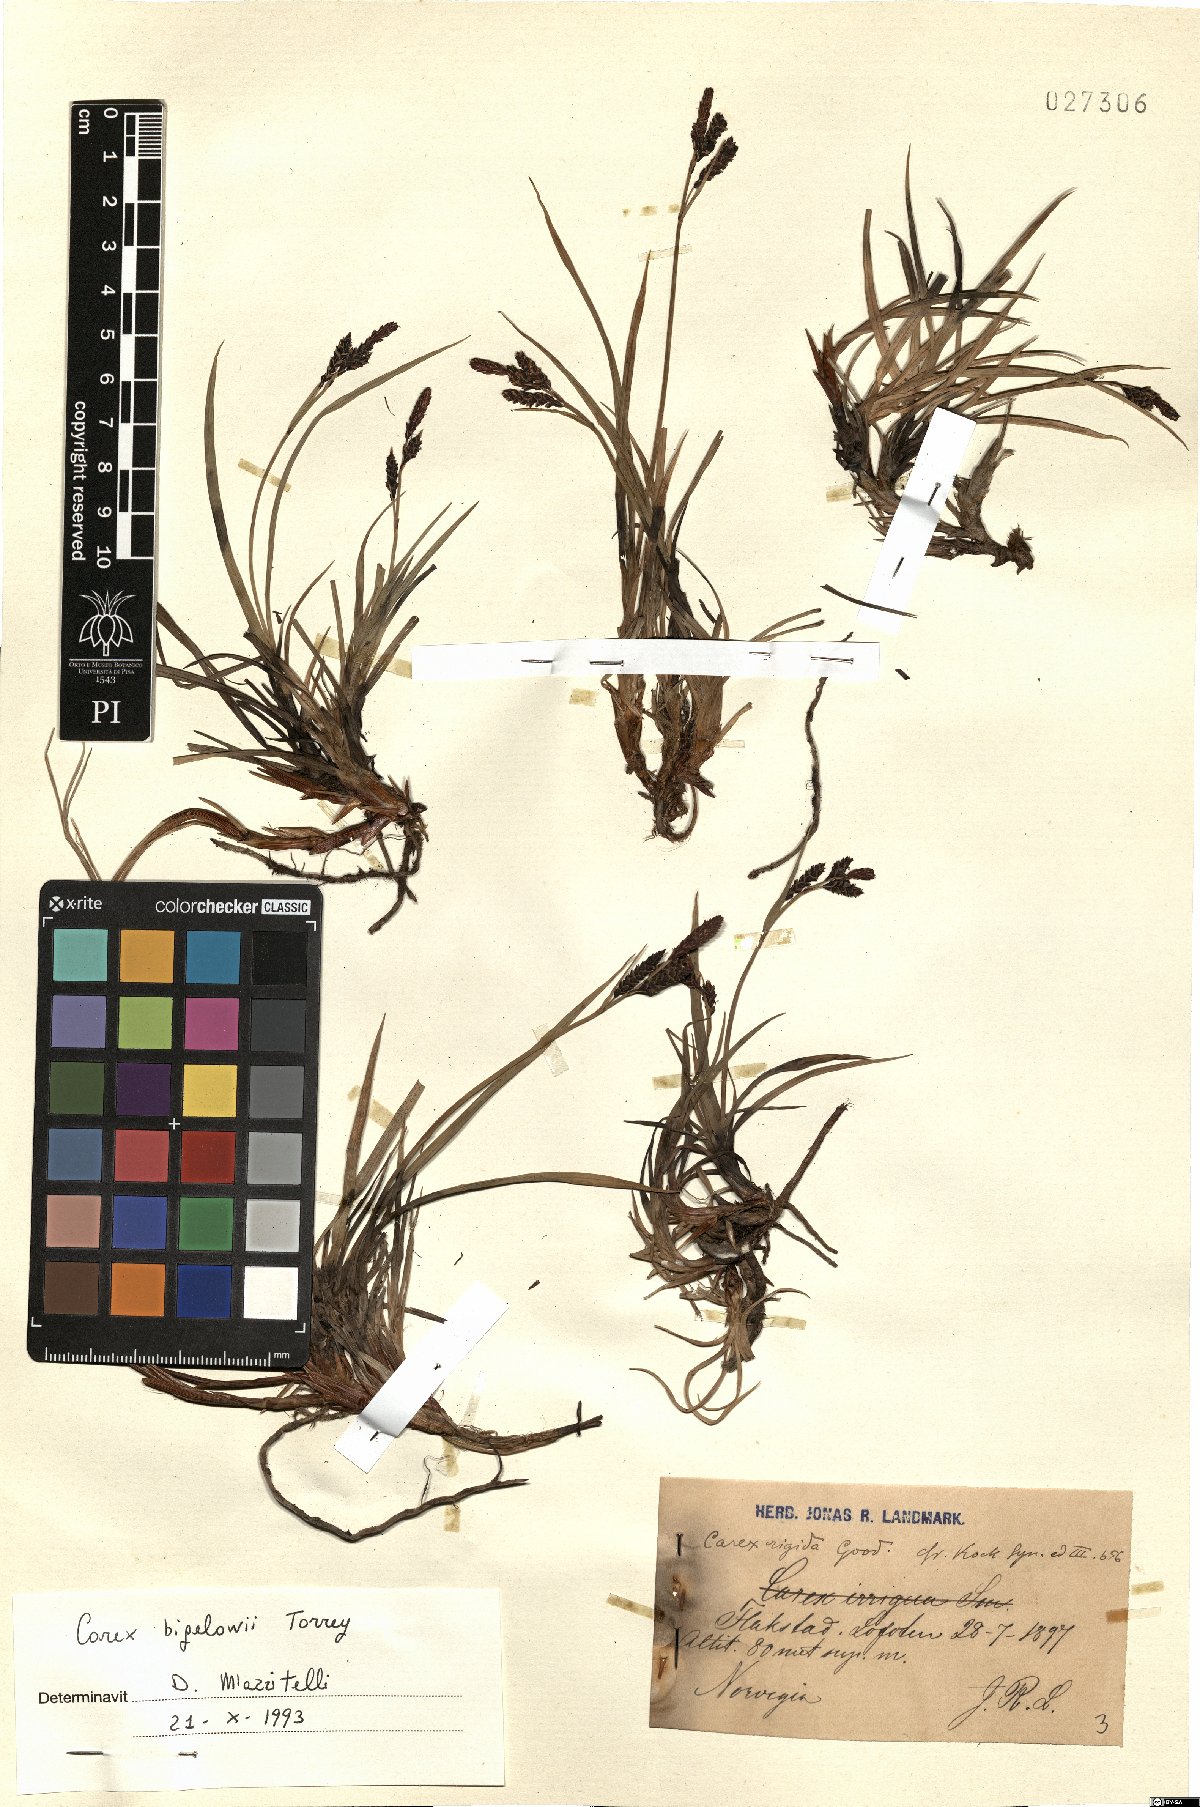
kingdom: Plantae
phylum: Tracheophyta
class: Liliopsida
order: Poales
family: Cyperaceae
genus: Carex
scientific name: Carex bigelowii
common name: Stiff sedge
